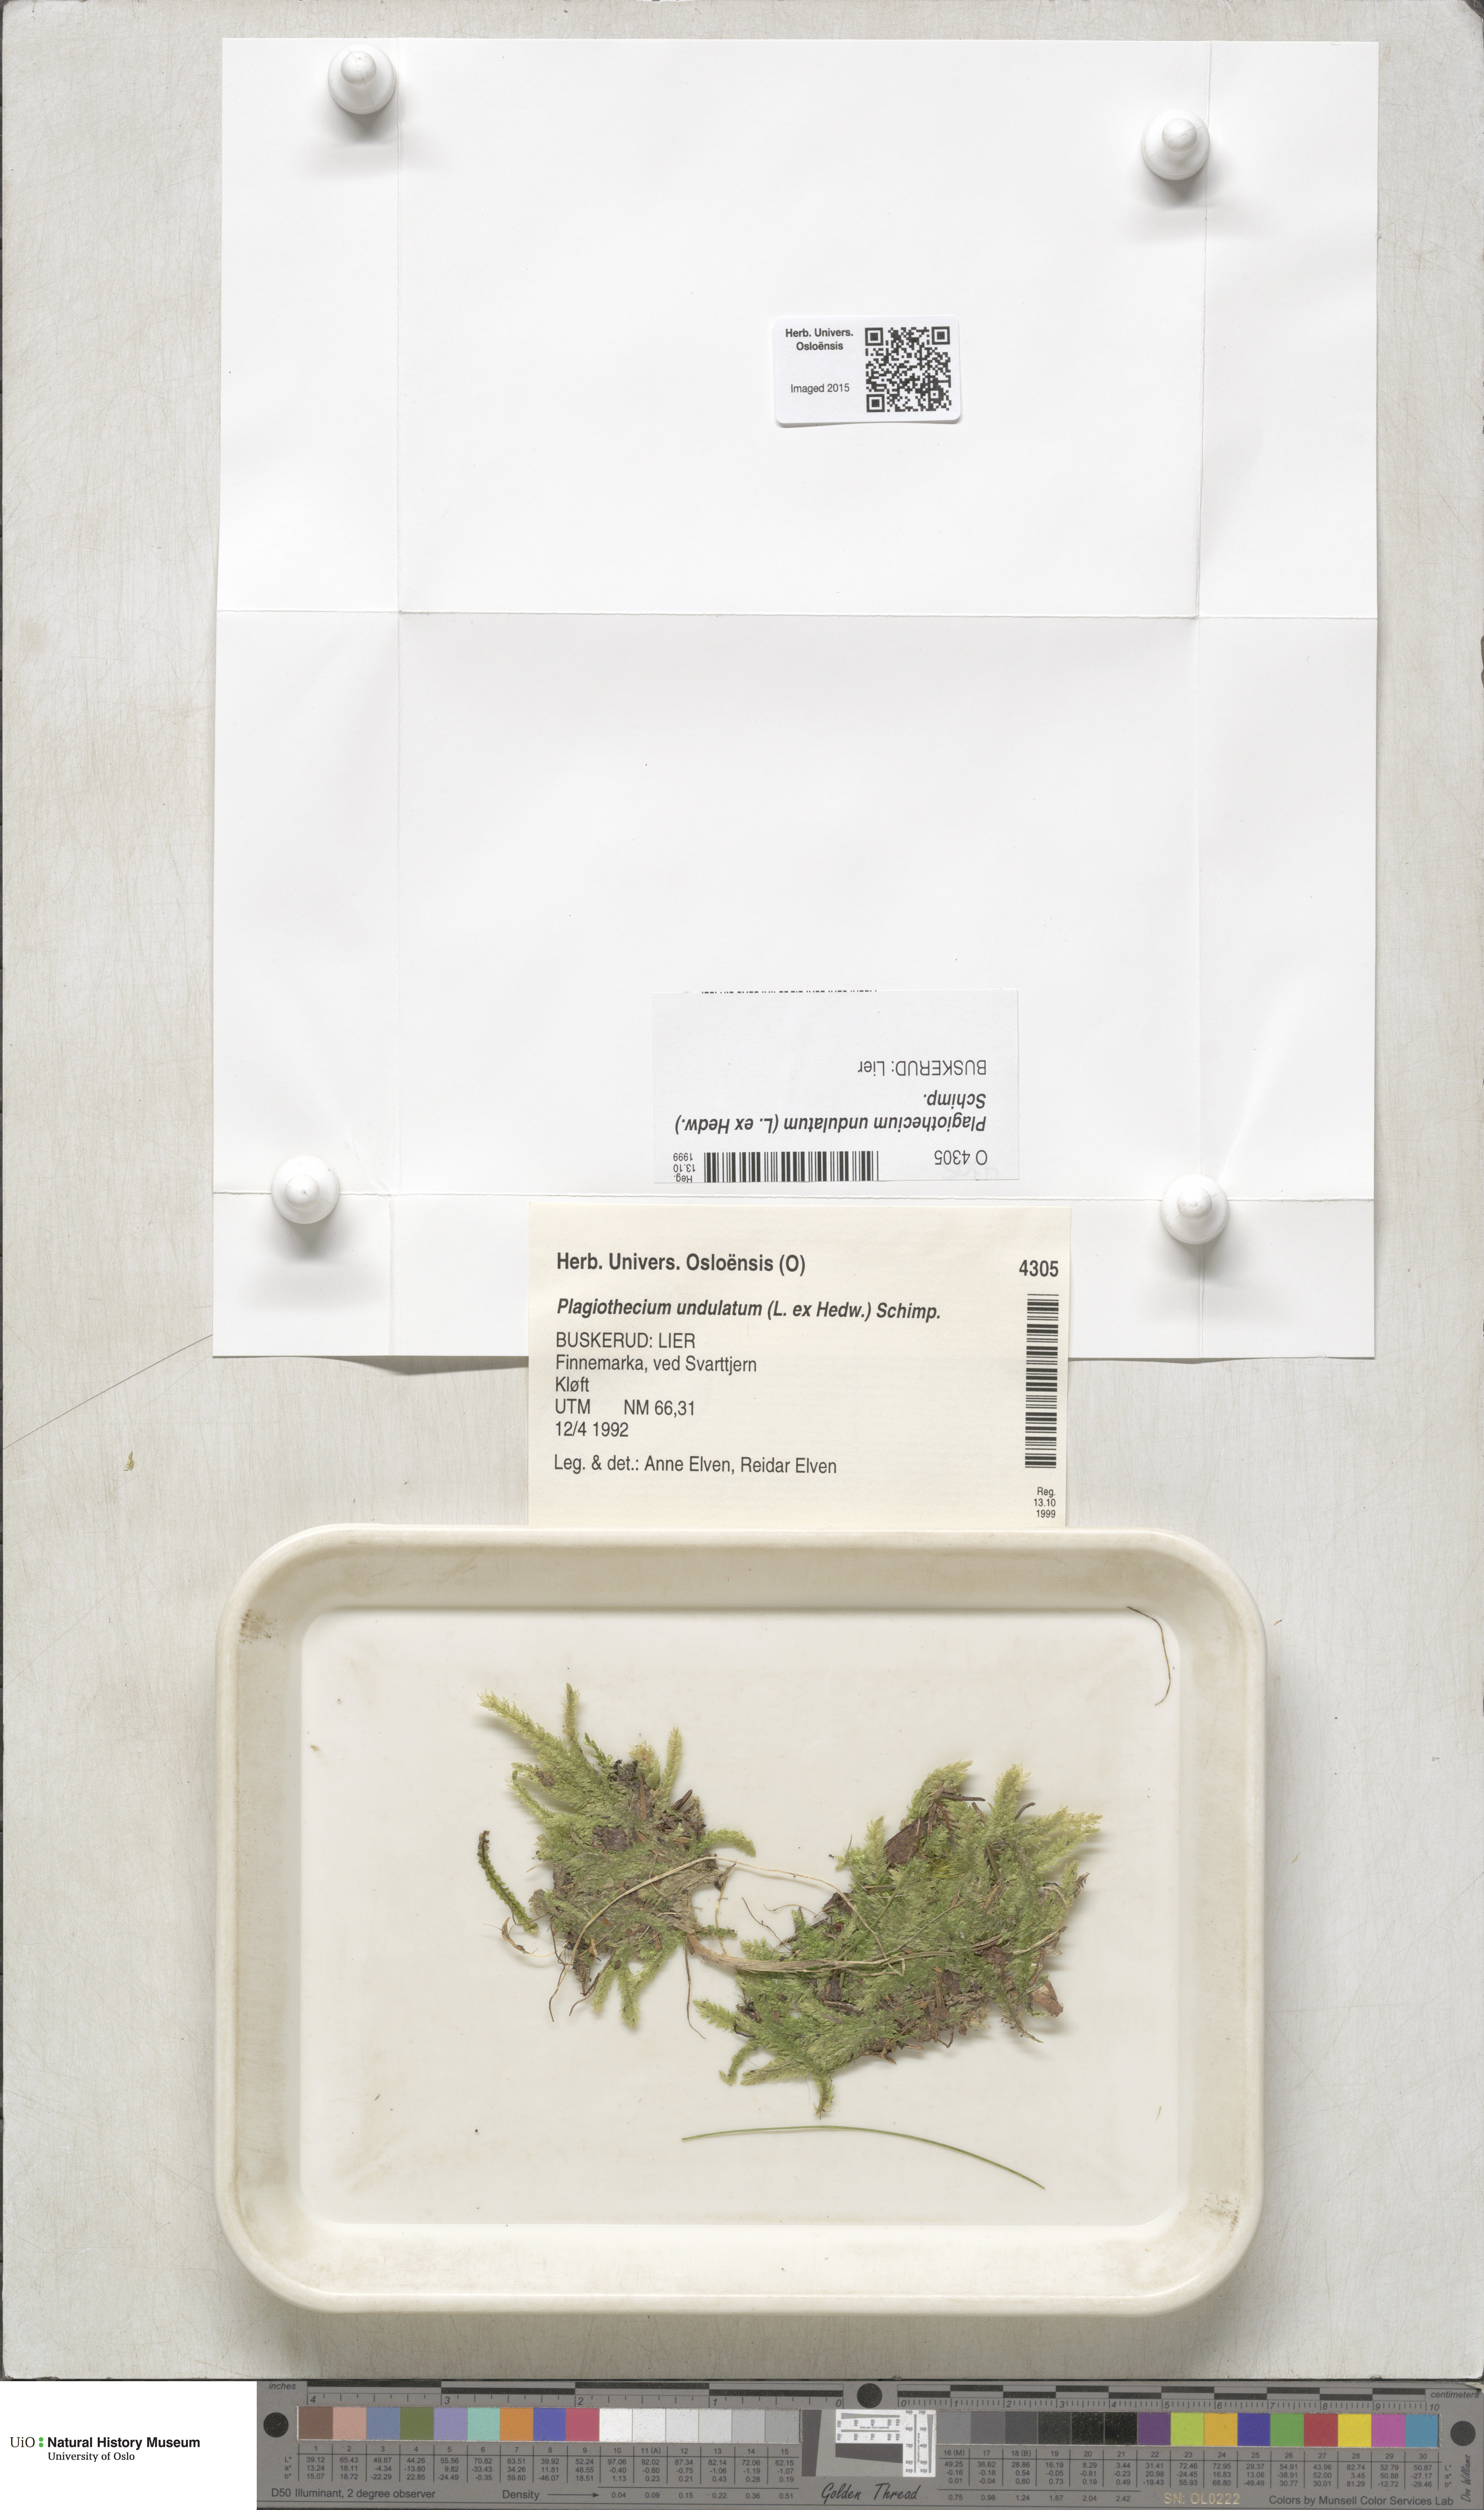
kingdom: Plantae
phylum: Bryophyta
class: Bryopsida
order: Hypnales
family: Plagiotheciaceae
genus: Plagiothecium
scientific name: Plagiothecium undulatum
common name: Waved silk-moss
